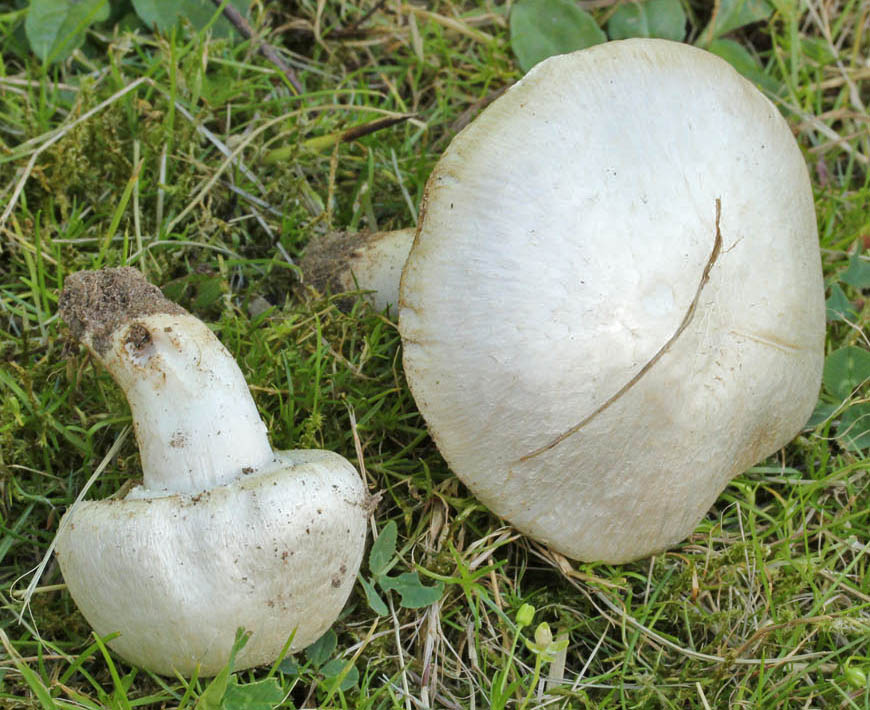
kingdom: Fungi
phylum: Basidiomycota
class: Agaricomycetes
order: Agaricales
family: Agaricaceae
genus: Agaricus
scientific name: Agaricus campestris
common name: mark-champignon
